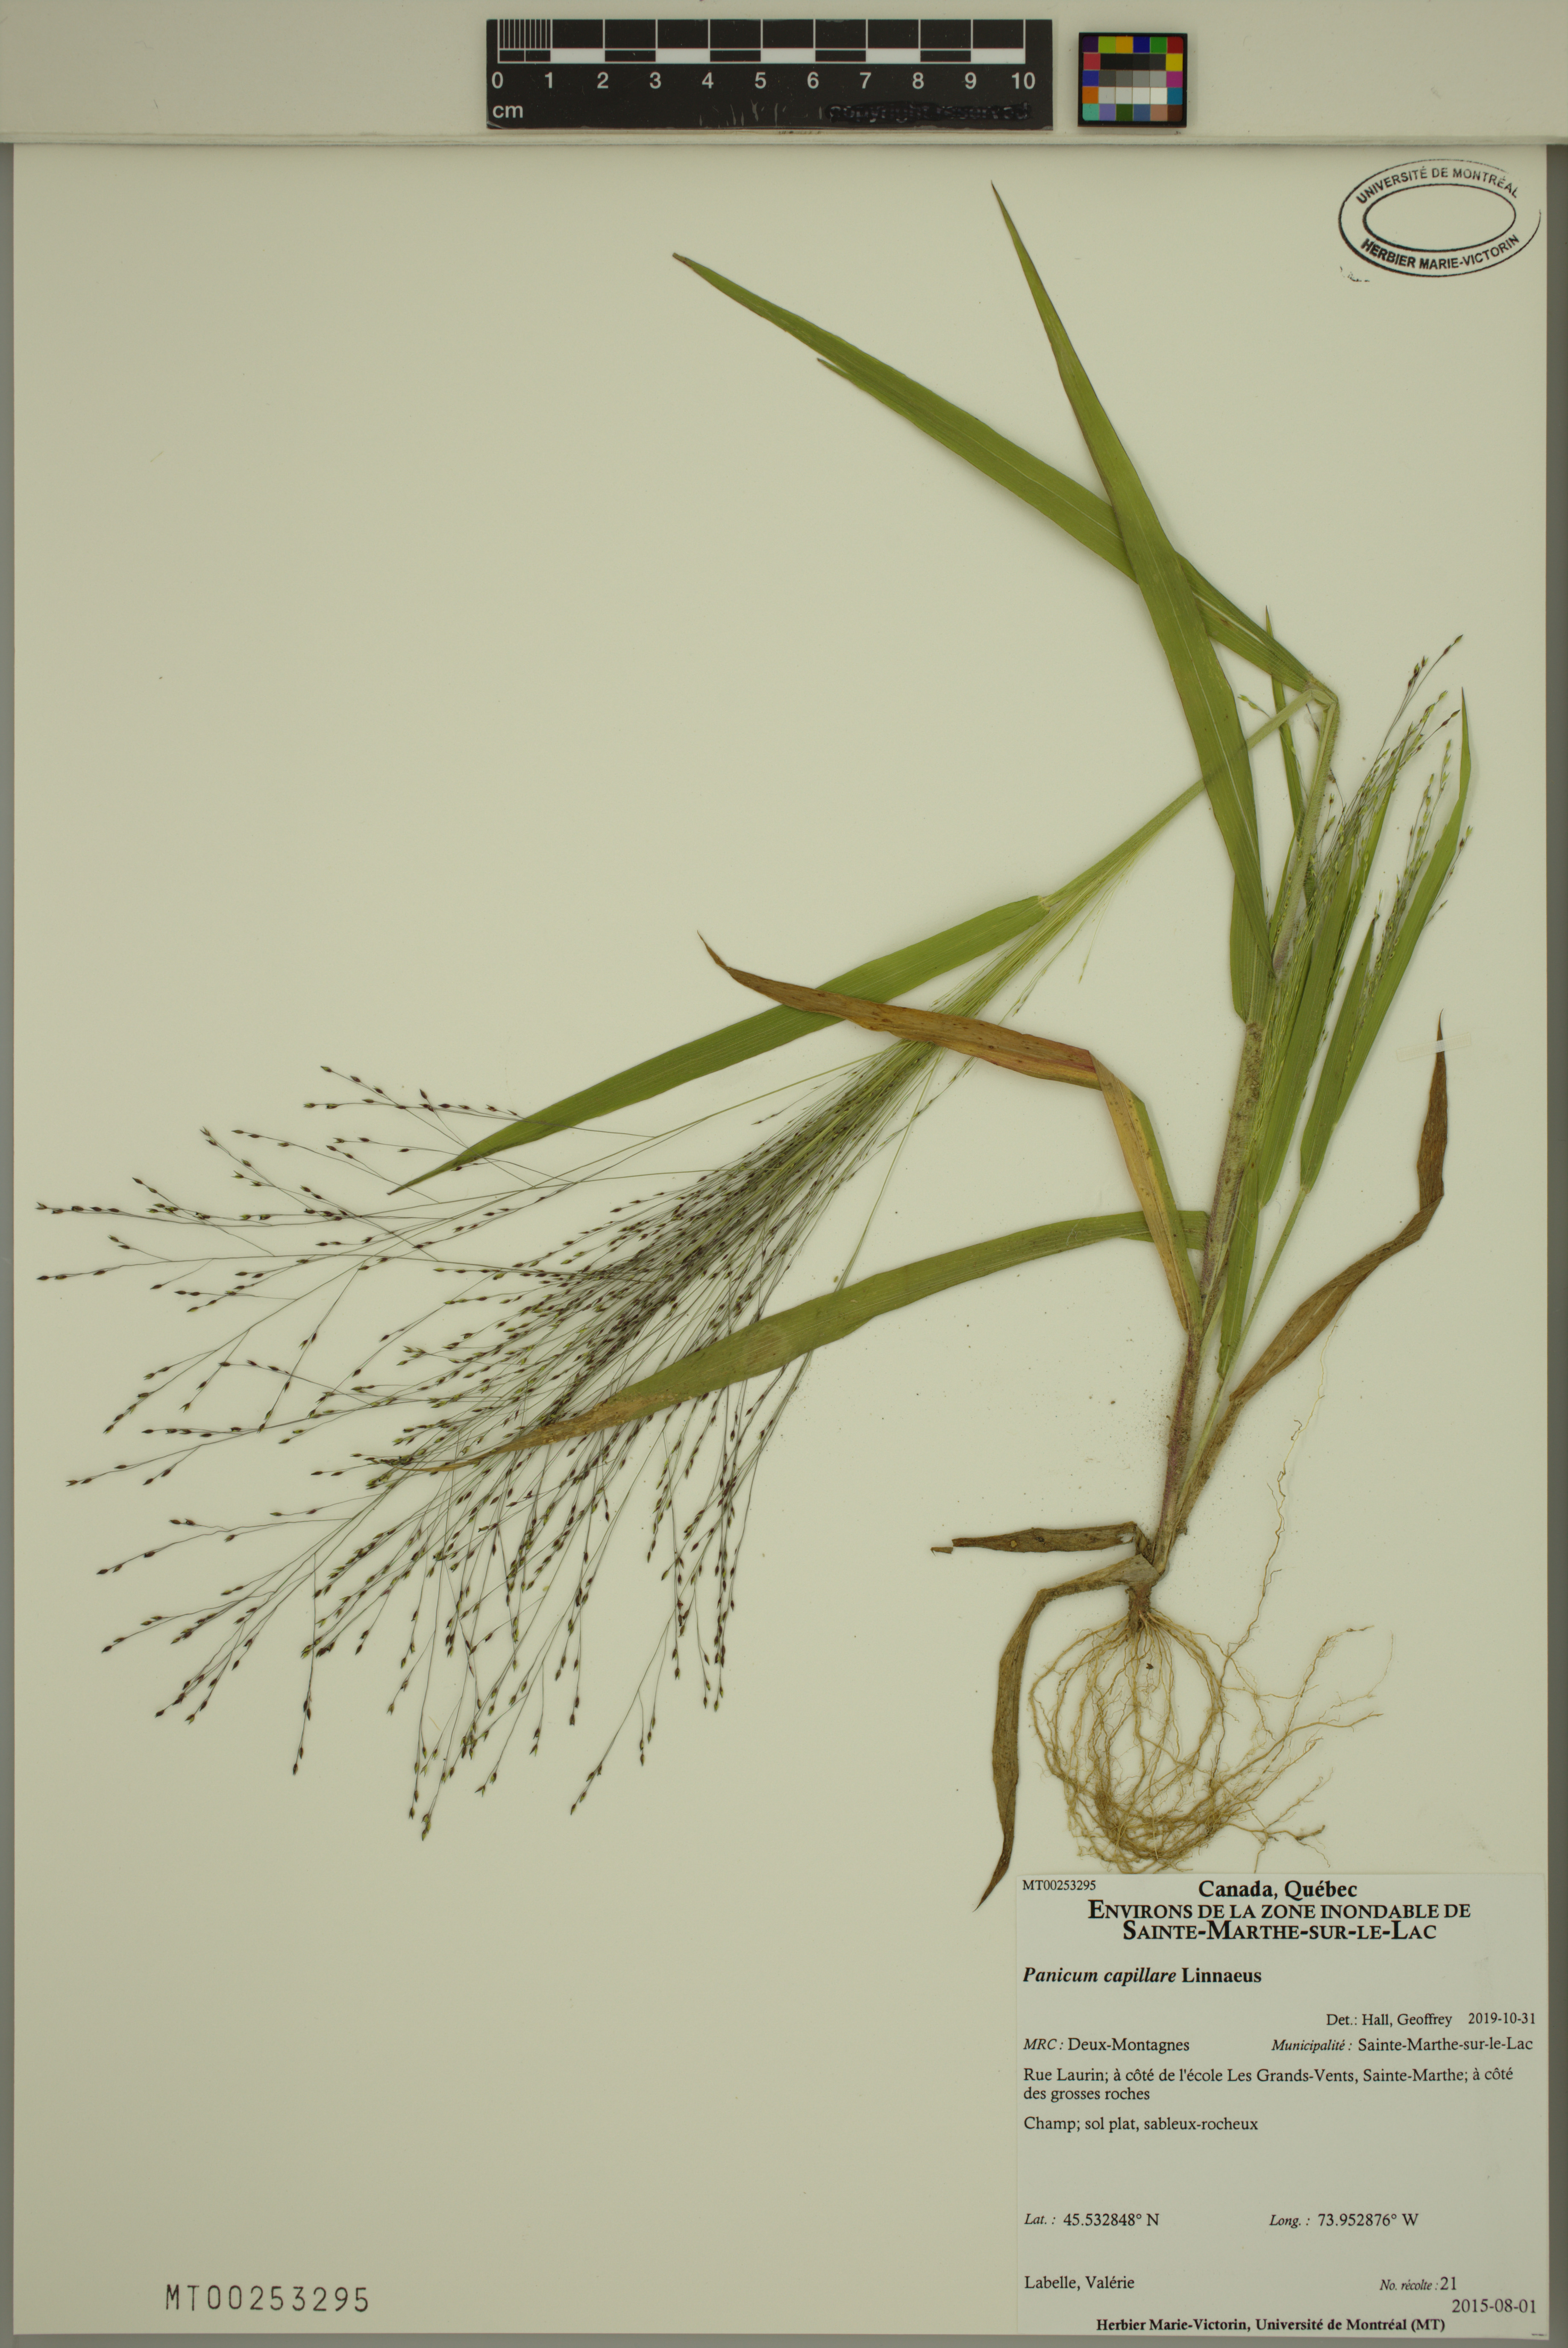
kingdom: Plantae
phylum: Tracheophyta
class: Liliopsida
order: Poales
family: Poaceae
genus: Panicum
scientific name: Panicum capillare
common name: Witch-grass
